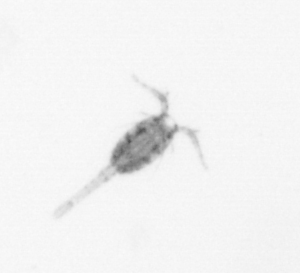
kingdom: Animalia
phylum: Arthropoda
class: Copepoda
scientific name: Copepoda
